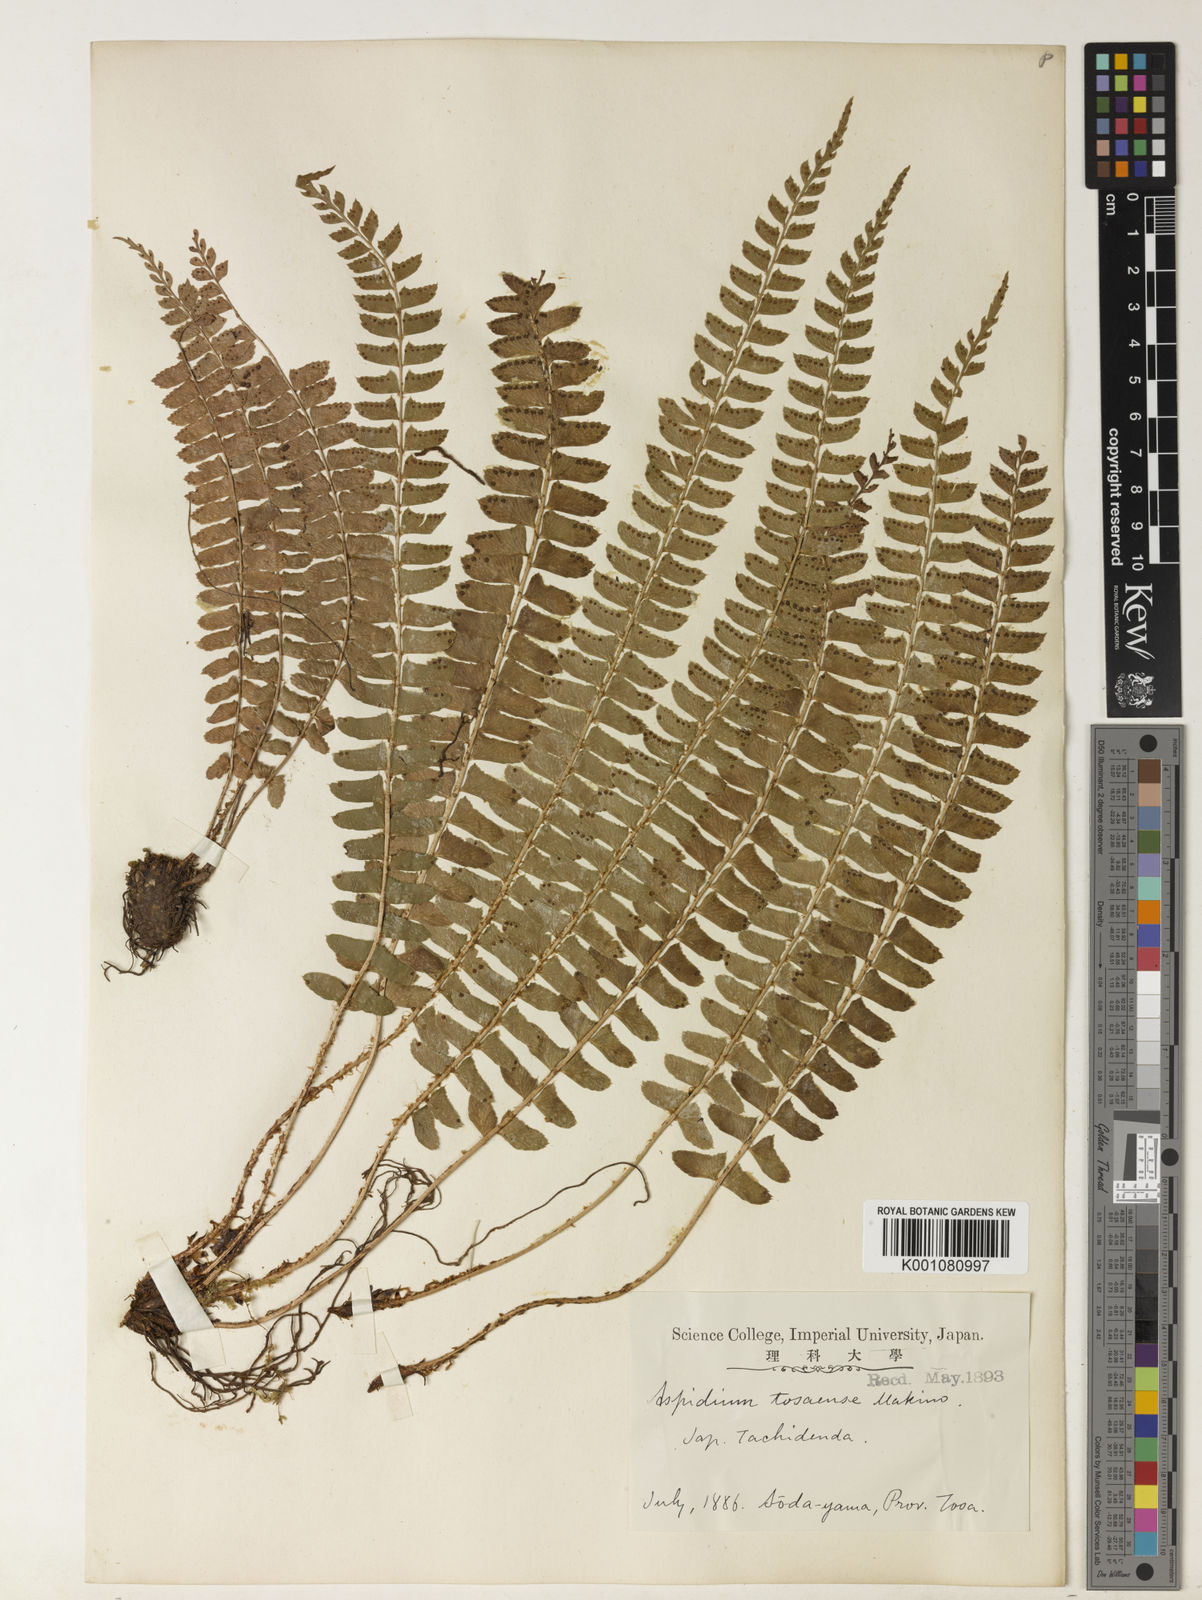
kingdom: Plantae
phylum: Tracheophyta
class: Polypodiopsida
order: Polypodiales
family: Dryopteridaceae
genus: Polystichum
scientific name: Polystichum deltodon
